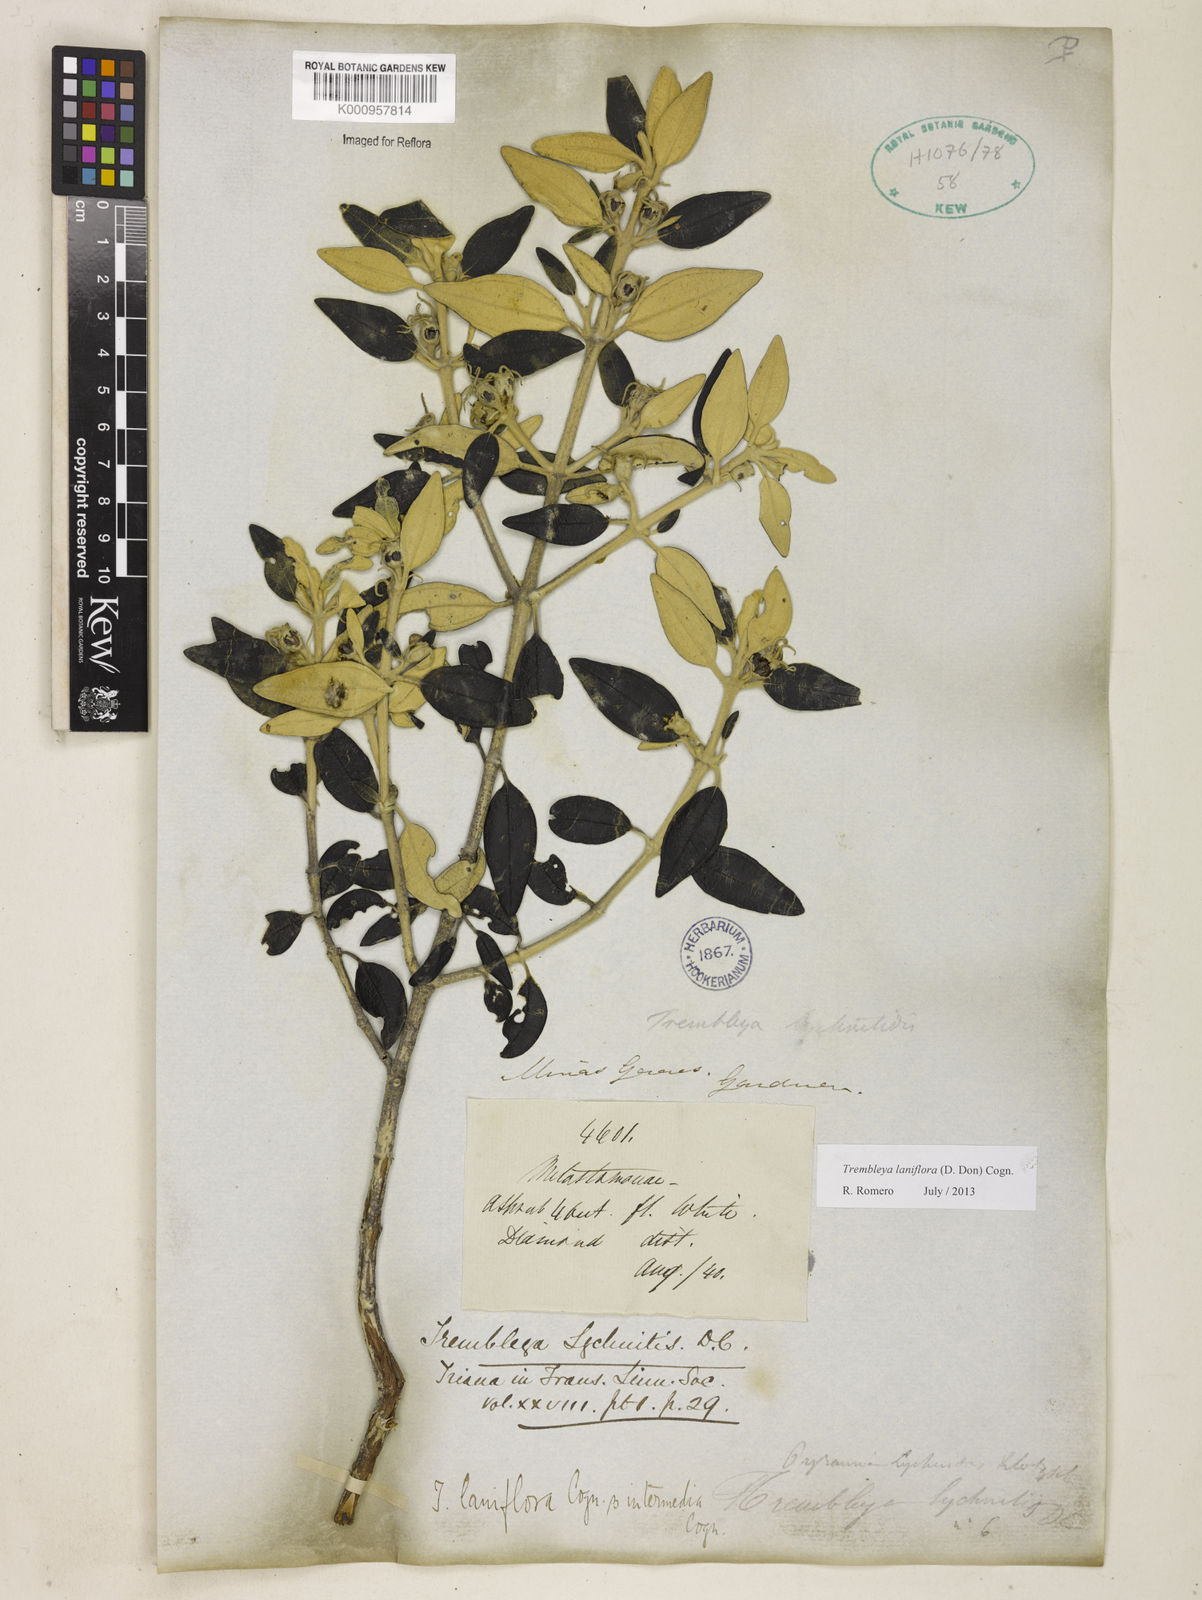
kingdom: Plantae
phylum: Tracheophyta
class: Magnoliopsida
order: Myrtales
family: Melastomataceae
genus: Microlicia
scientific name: Microlicia laniflora
